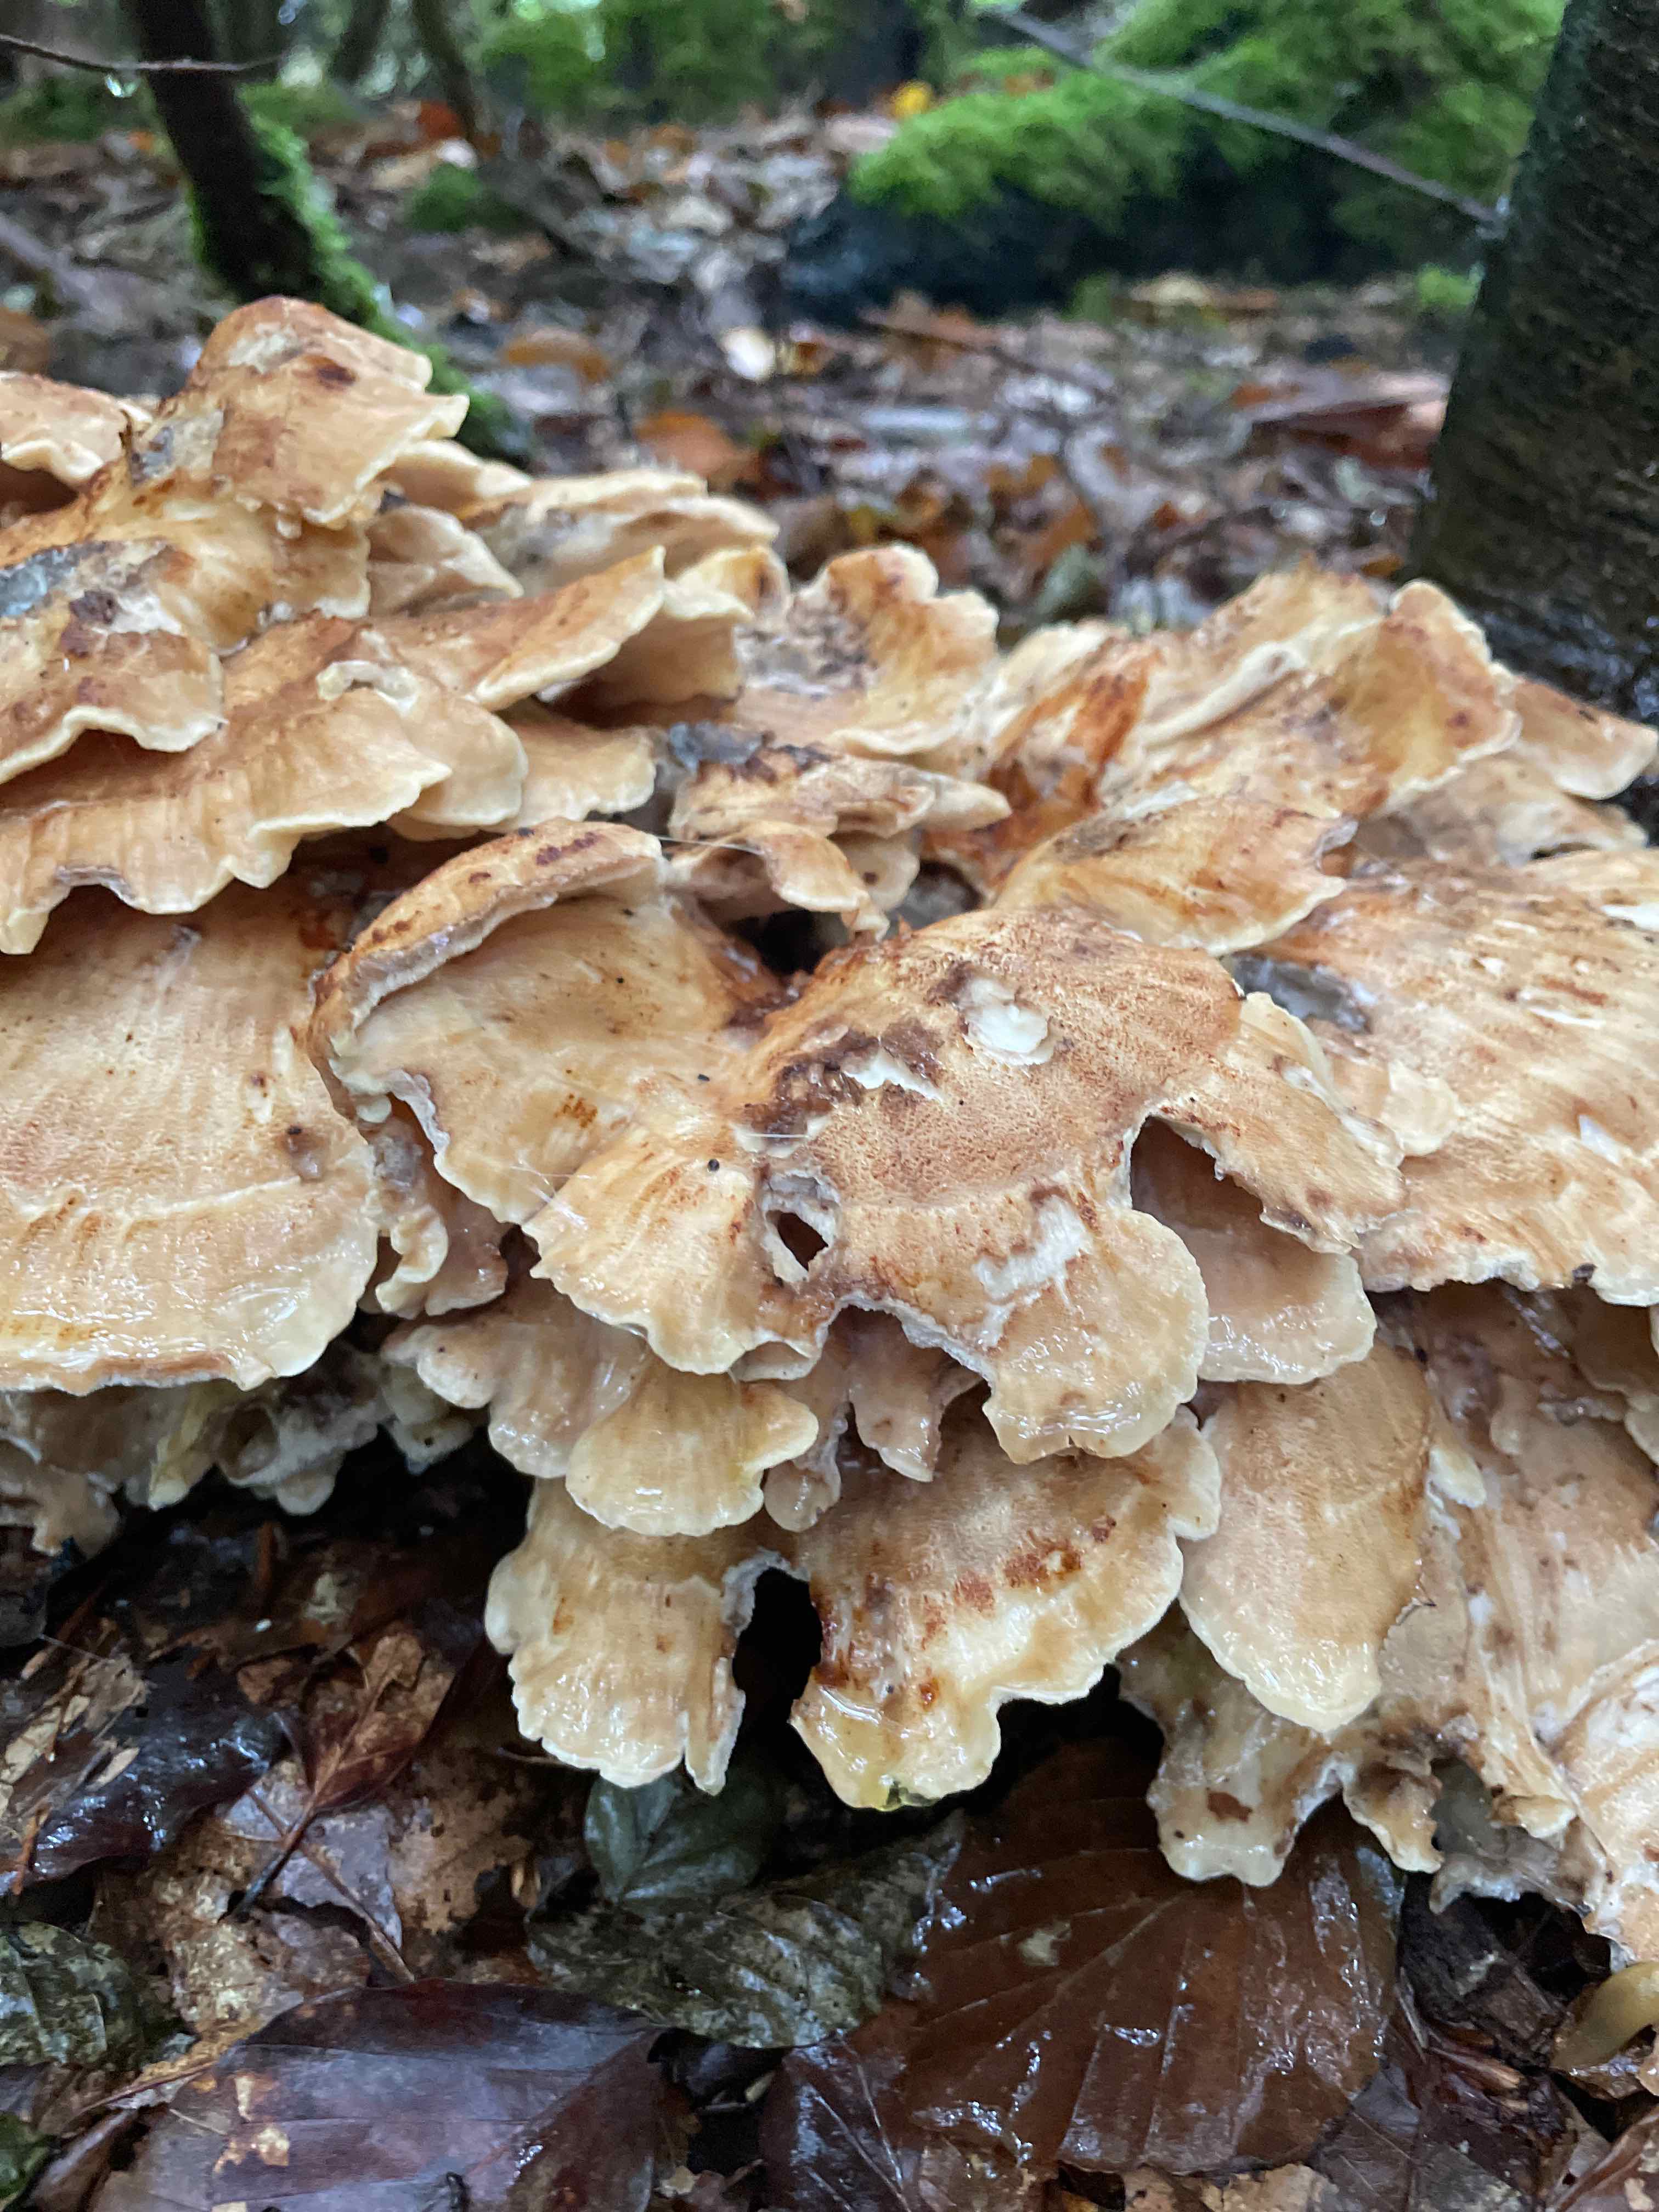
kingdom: Fungi
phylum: Basidiomycota
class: Agaricomycetes
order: Polyporales
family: Meripilaceae
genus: Meripilus
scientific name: Meripilus giganteus
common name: kæmpeporesvamp
